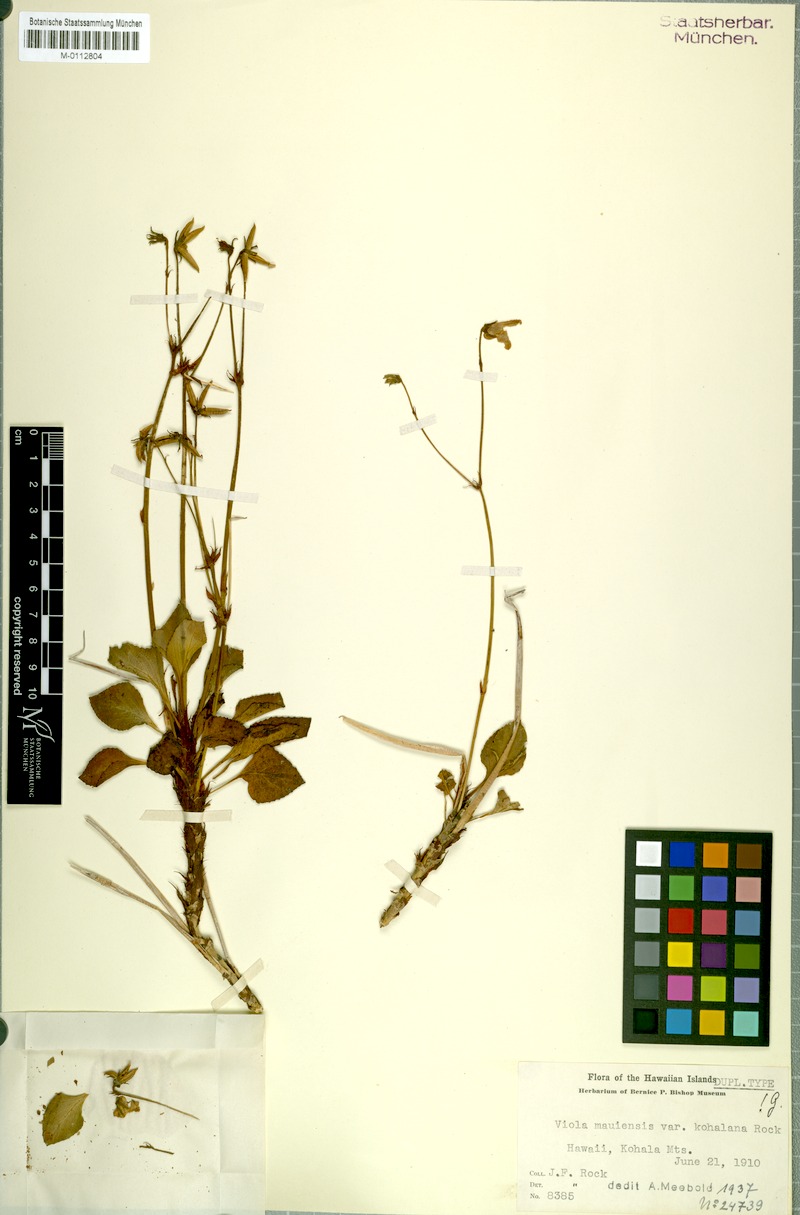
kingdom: Plantae
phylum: Tracheophyta
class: Magnoliopsida
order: Malpighiales
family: Violaceae
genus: Viola
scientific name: Viola maviensis
